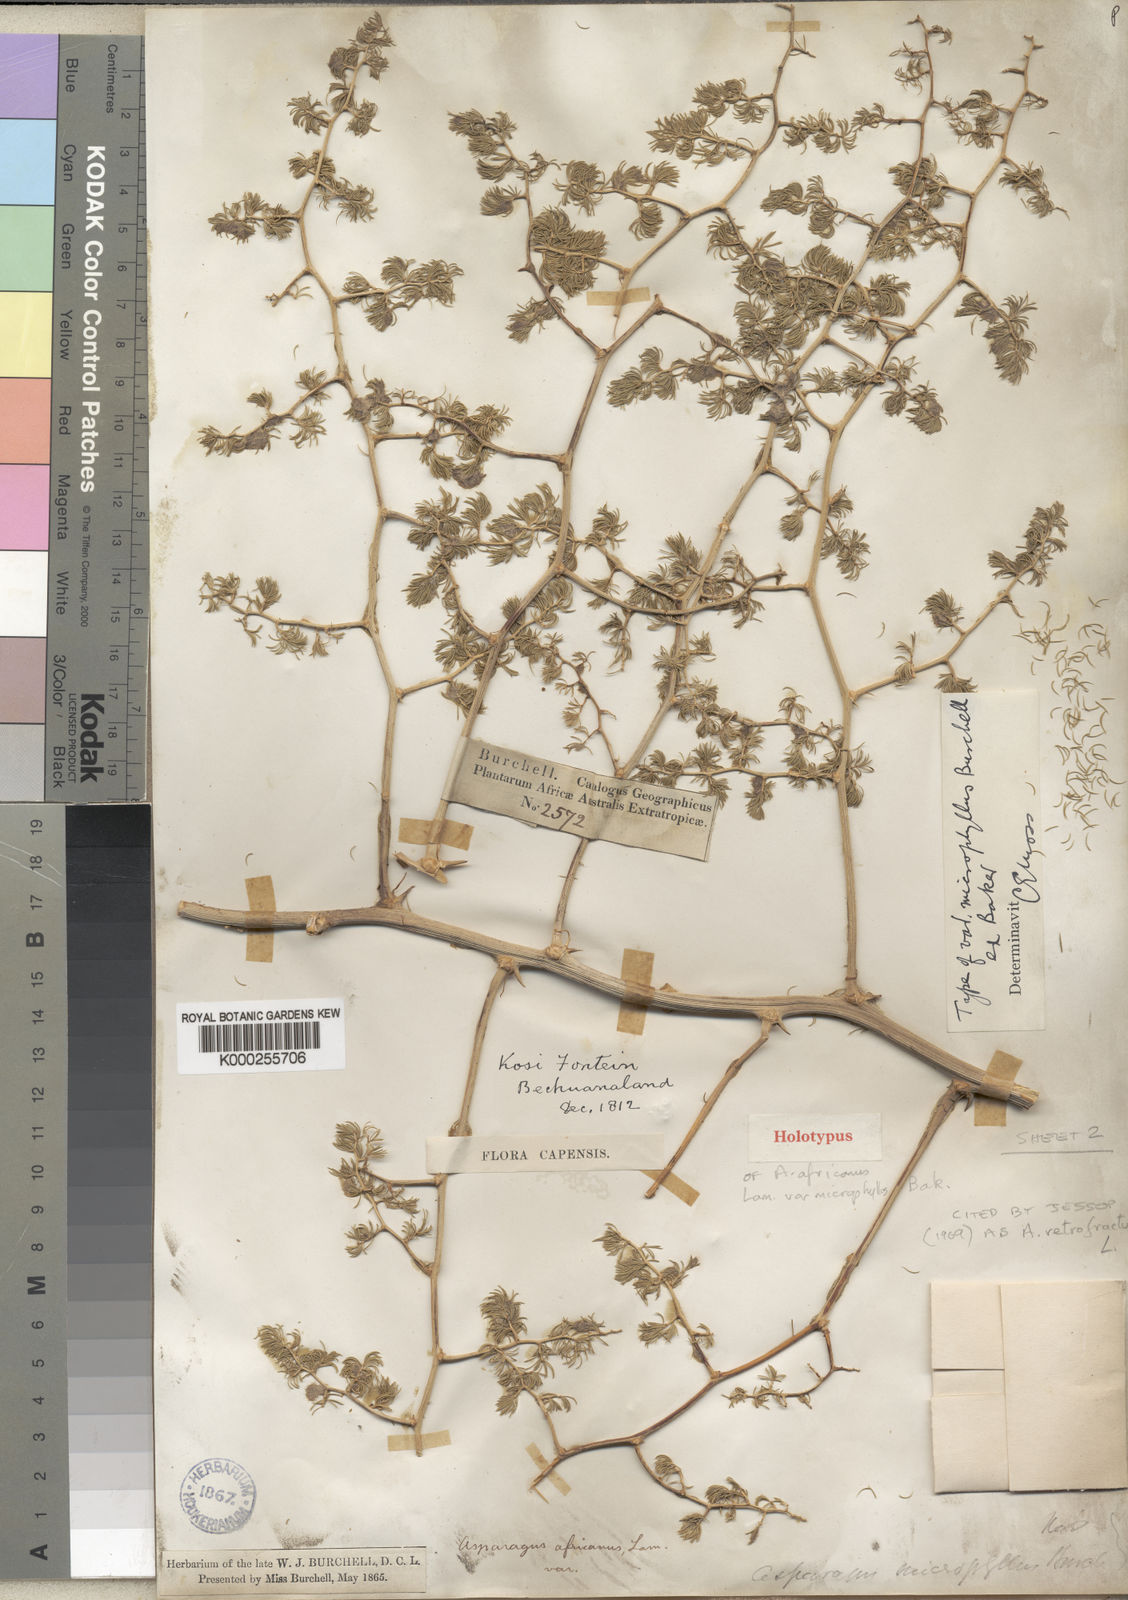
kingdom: Plantae
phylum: Tracheophyta
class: Liliopsida
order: Asparagales
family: Asparagaceae
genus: Asparagus
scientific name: Asparagus retrofractus
